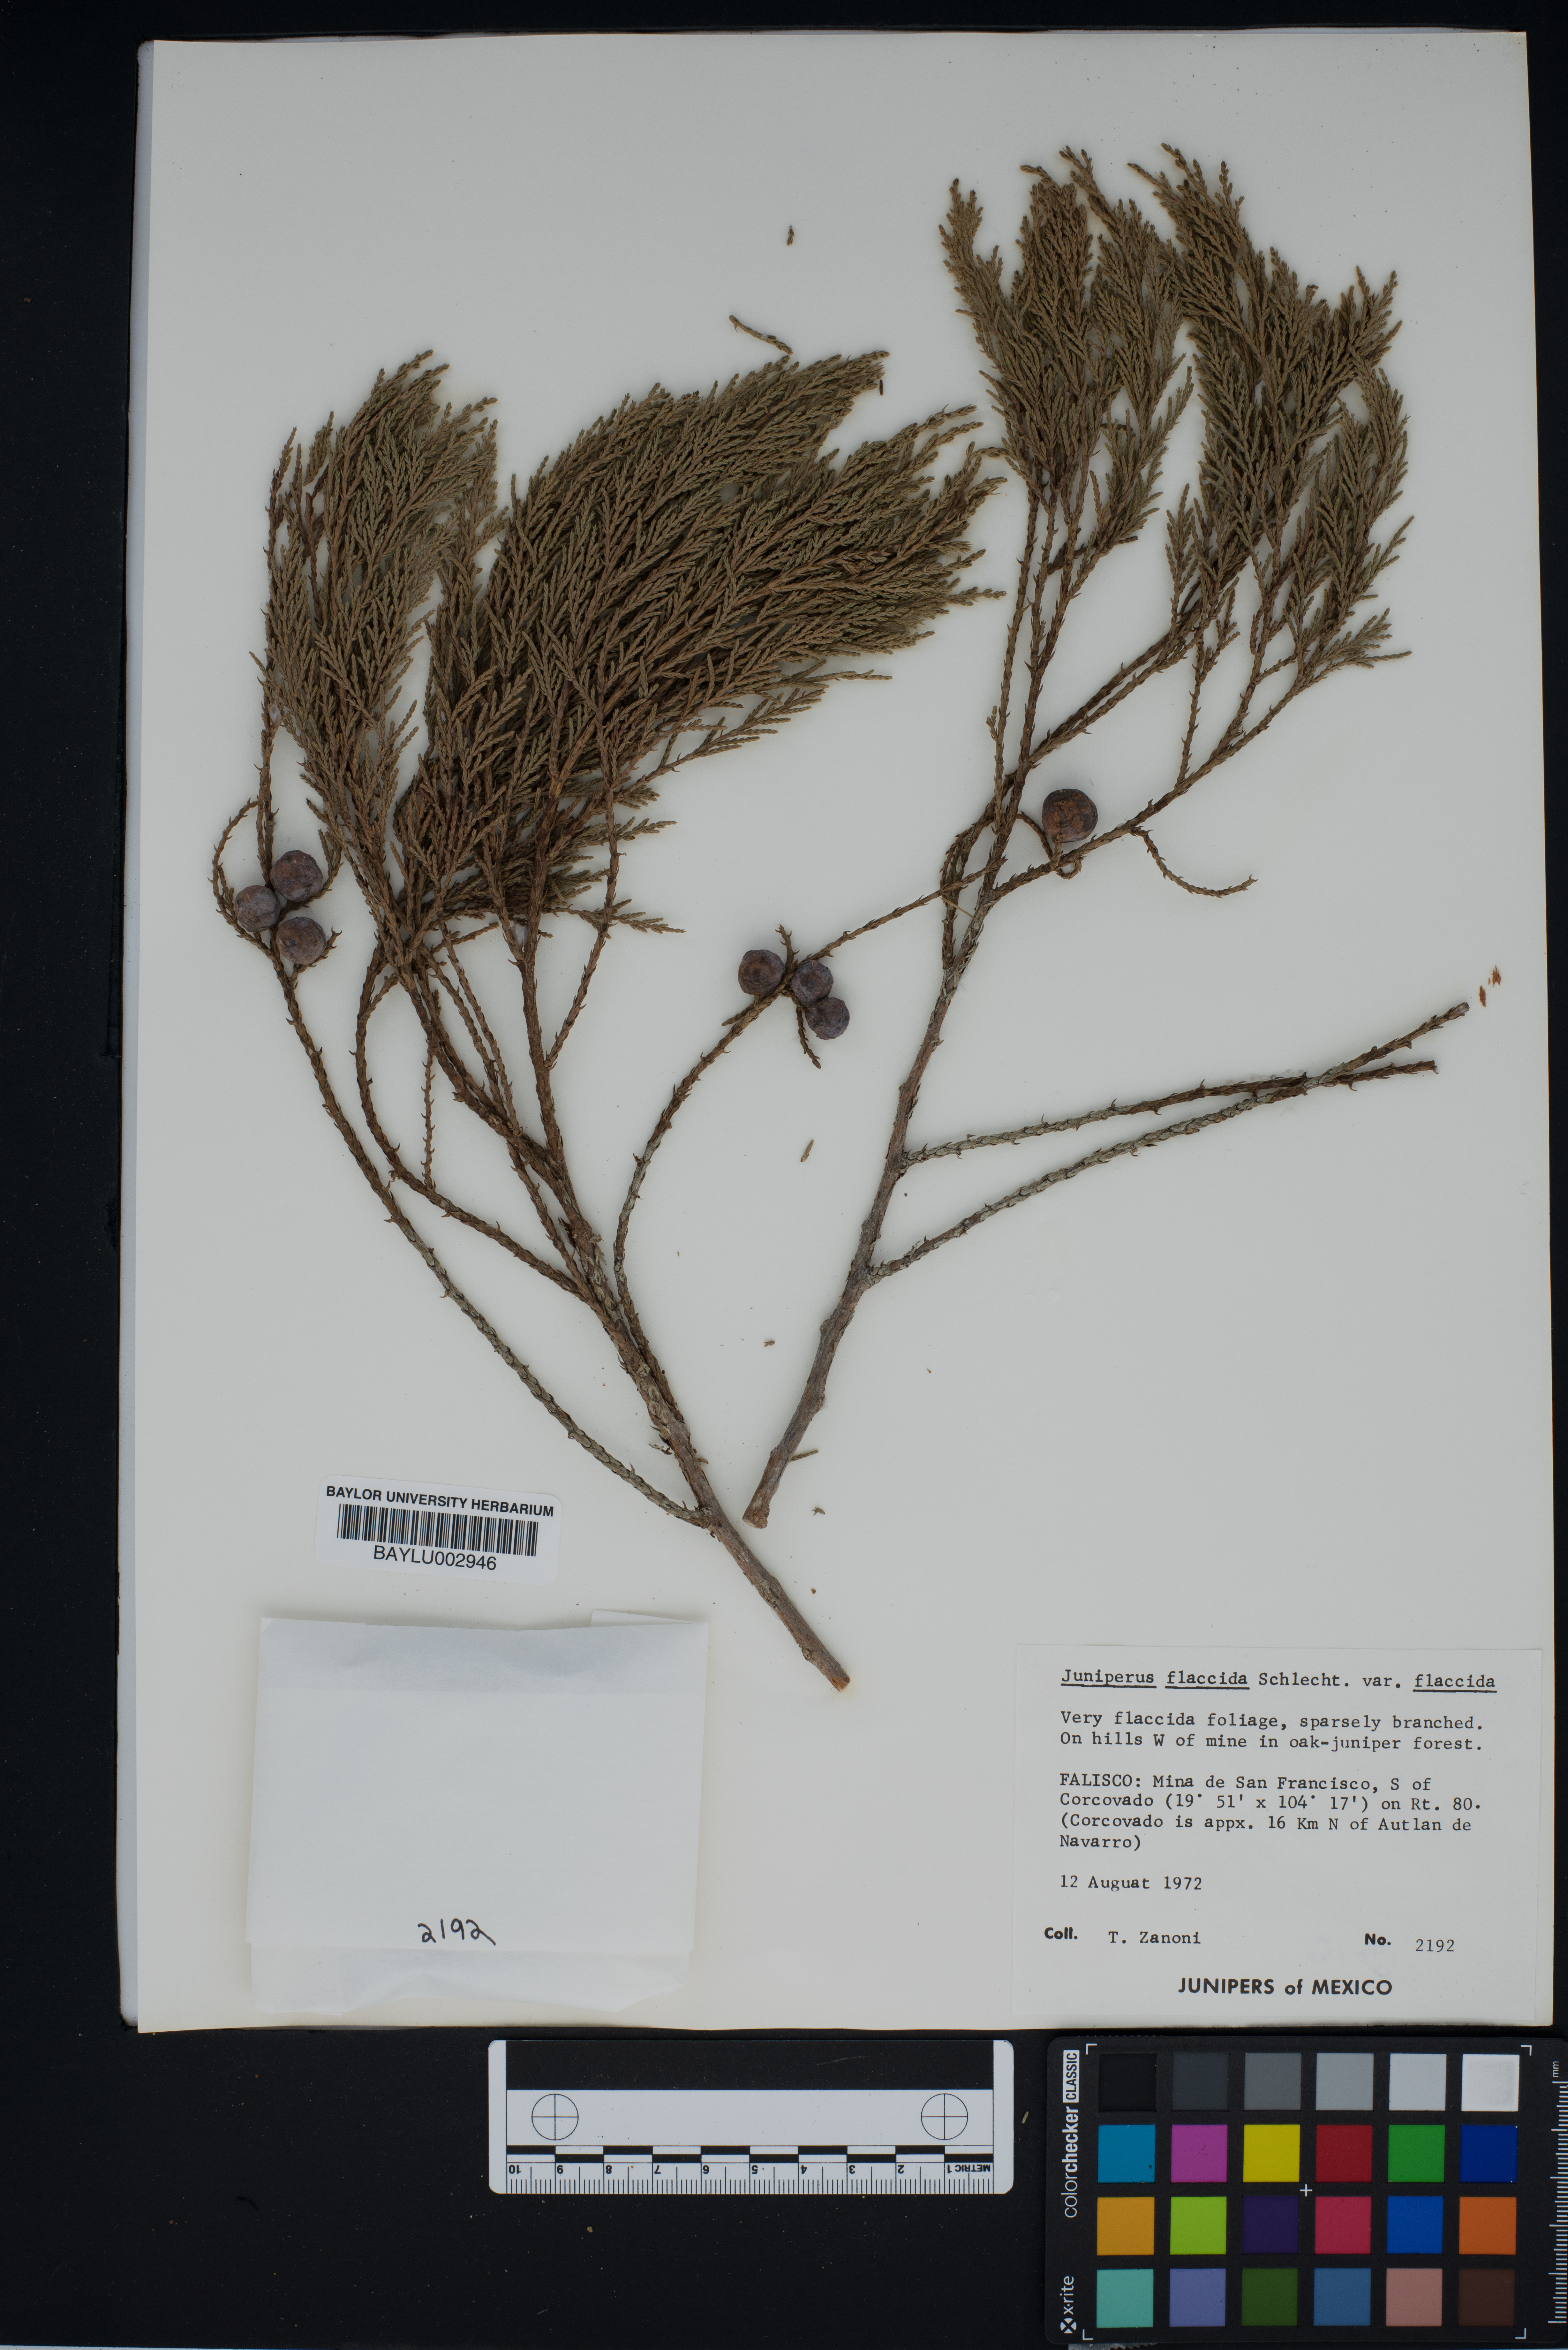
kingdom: Plantae
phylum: Tracheophyta
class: Pinopsida
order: Pinales
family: Cupressaceae
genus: Juniperus
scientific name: Juniperus flaccida
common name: Drooping juniper
